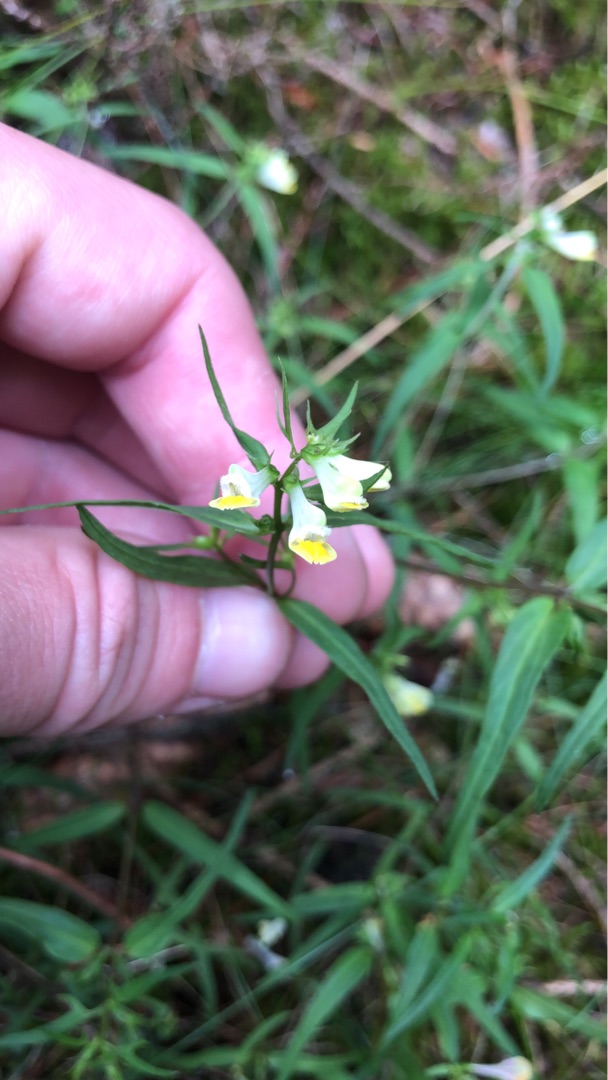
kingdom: Plantae
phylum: Tracheophyta
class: Magnoliopsida
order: Lamiales
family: Orobanchaceae
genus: Melampyrum
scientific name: Melampyrum pratense
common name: Almindelig kohvede
